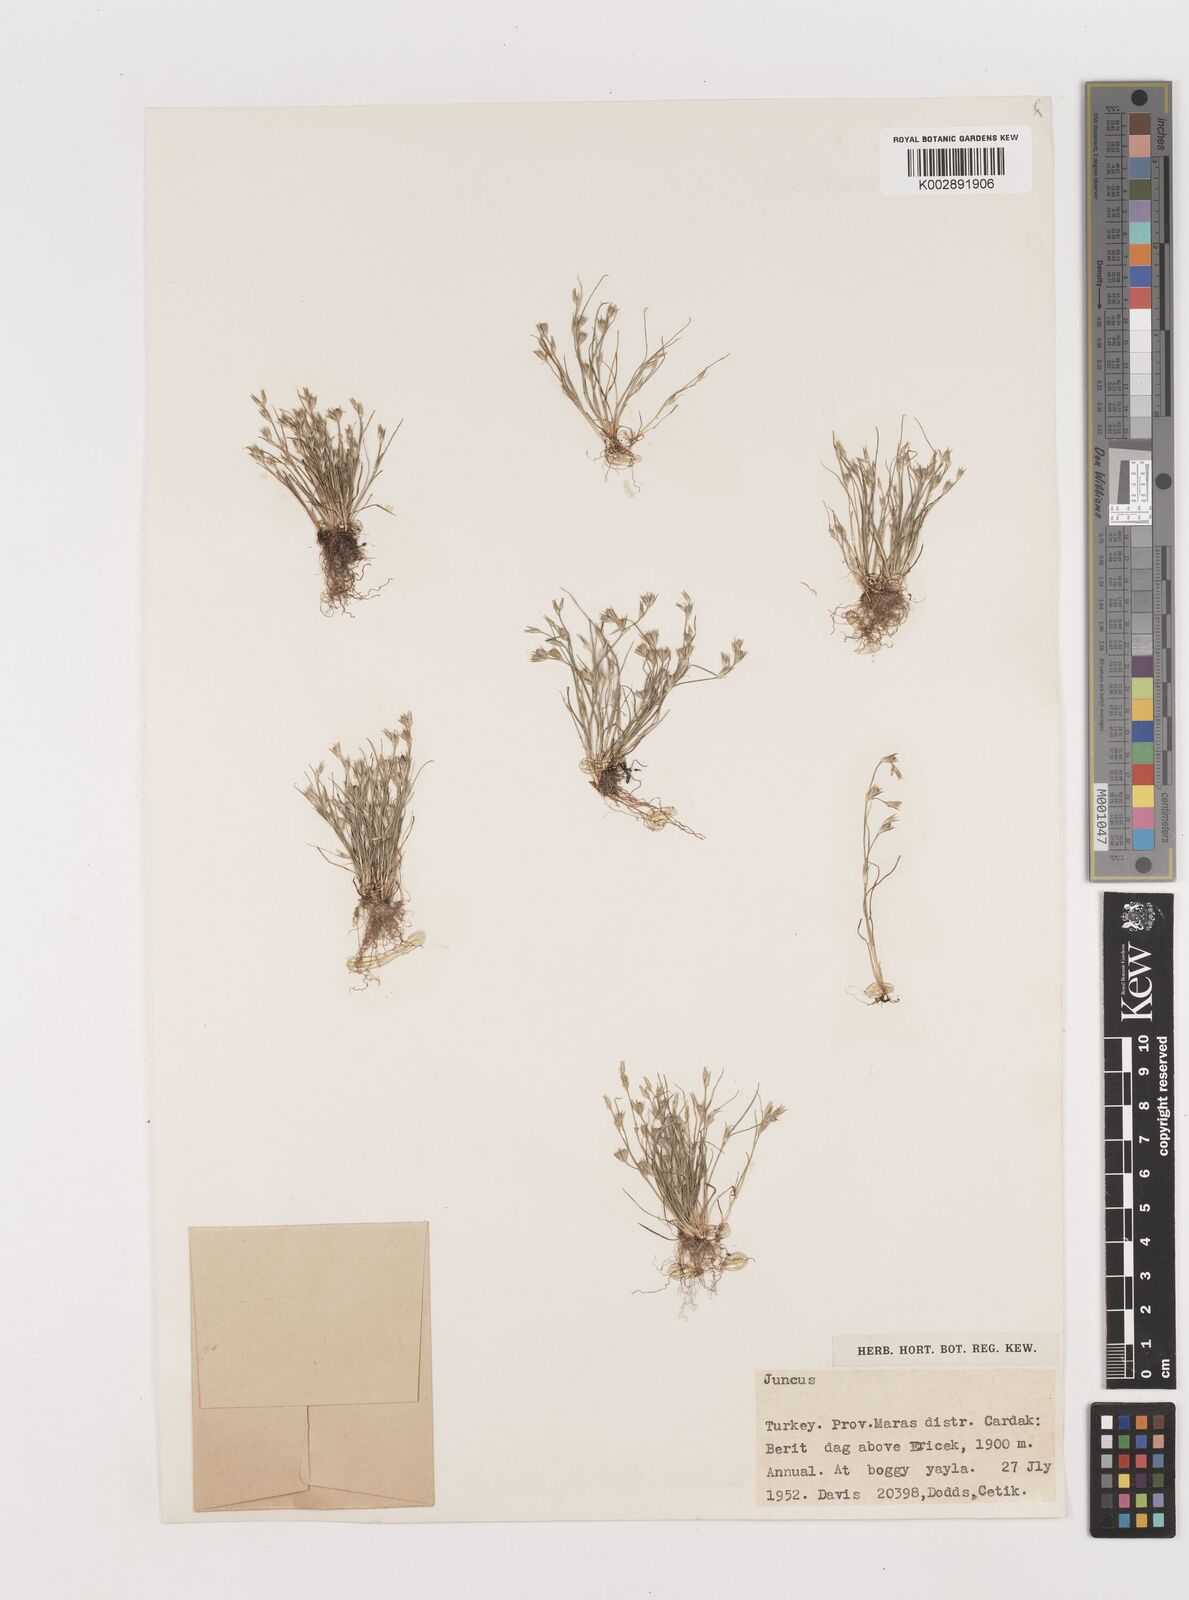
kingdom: Plantae
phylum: Tracheophyta
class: Liliopsida
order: Poales
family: Juncaceae
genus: Juncus
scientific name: Juncus
